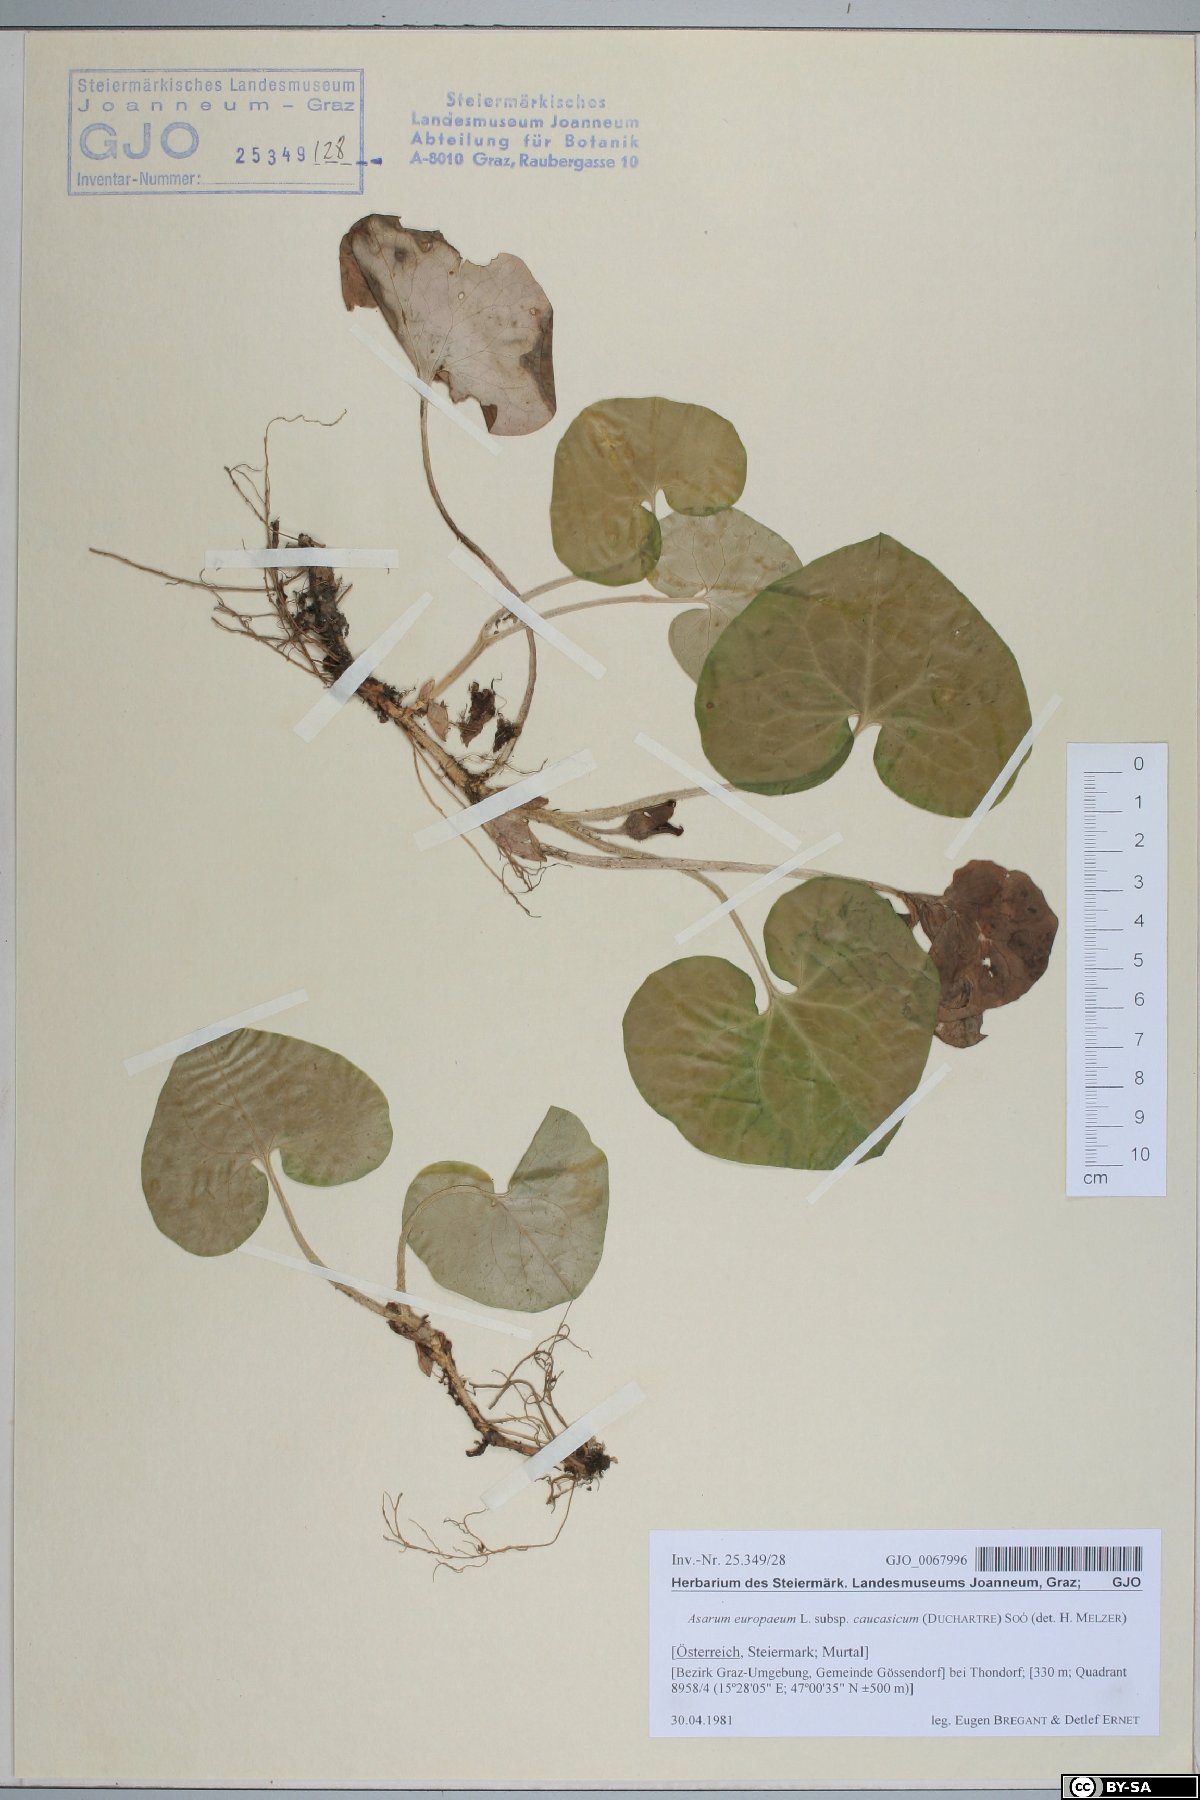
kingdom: Plantae
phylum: Tracheophyta
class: Magnoliopsida
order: Piperales
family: Aristolochiaceae
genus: Asarum
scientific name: Asarum europaeum
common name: Asarabacca
